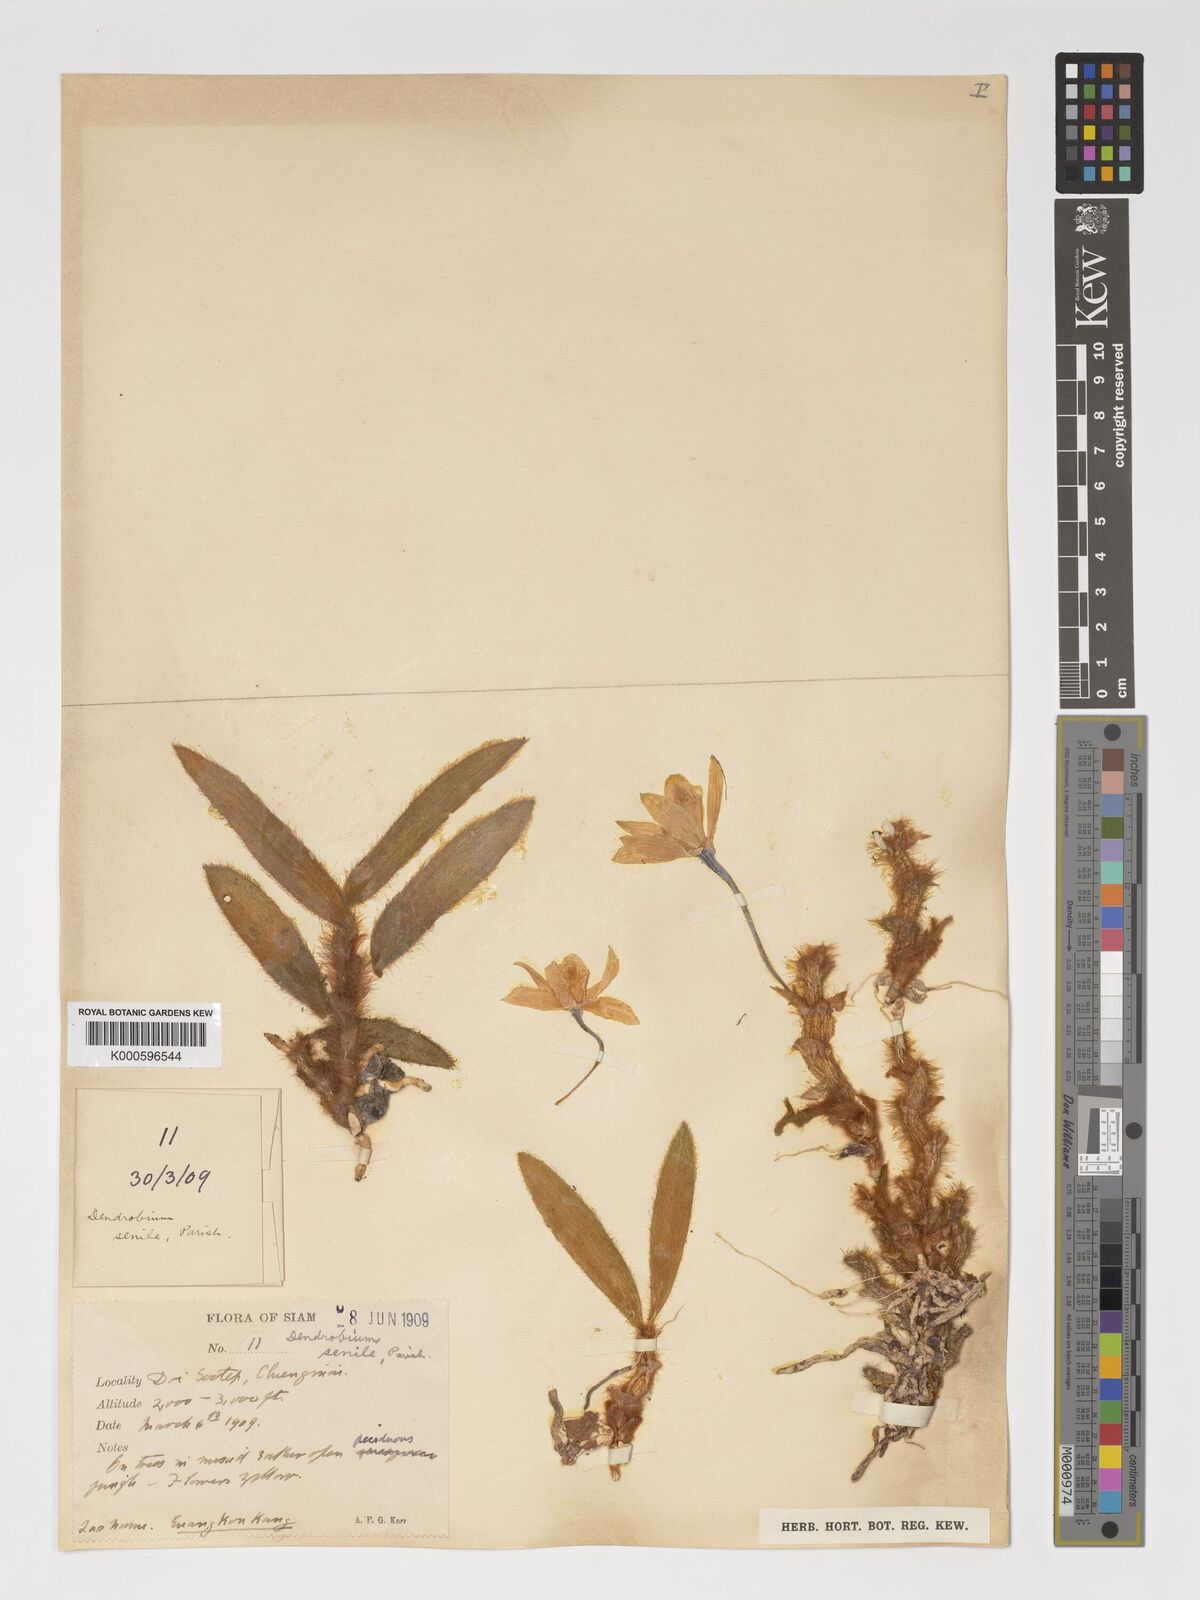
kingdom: Plantae
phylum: Tracheophyta
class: Liliopsida
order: Asparagales
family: Orchidaceae
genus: Dendrobium
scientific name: Dendrobium senile
